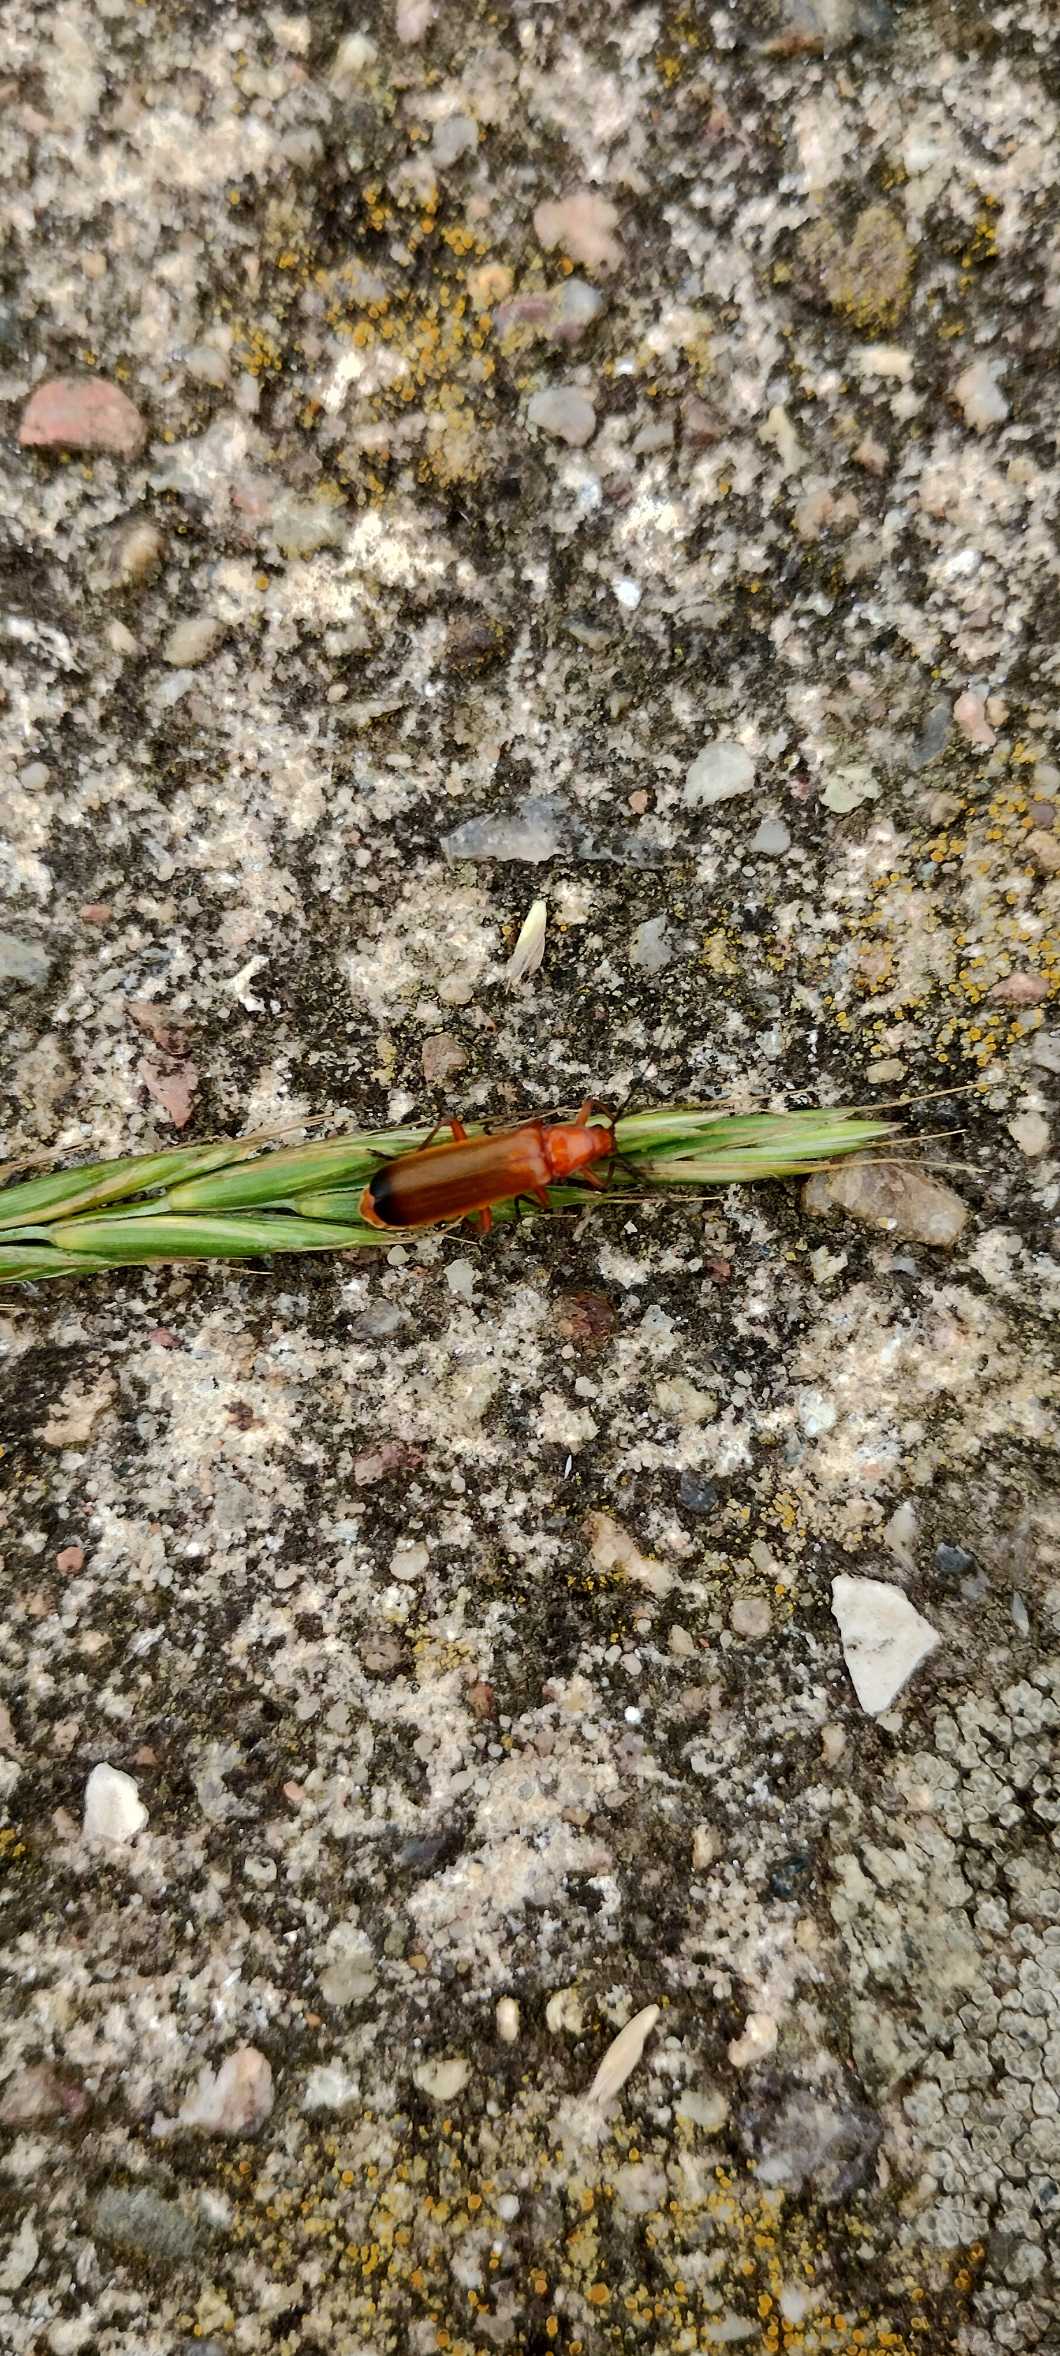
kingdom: Animalia
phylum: Arthropoda
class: Insecta
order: Coleoptera
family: Cantharidae
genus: Rhagonycha
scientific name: Rhagonycha fulva
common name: Præstebille
